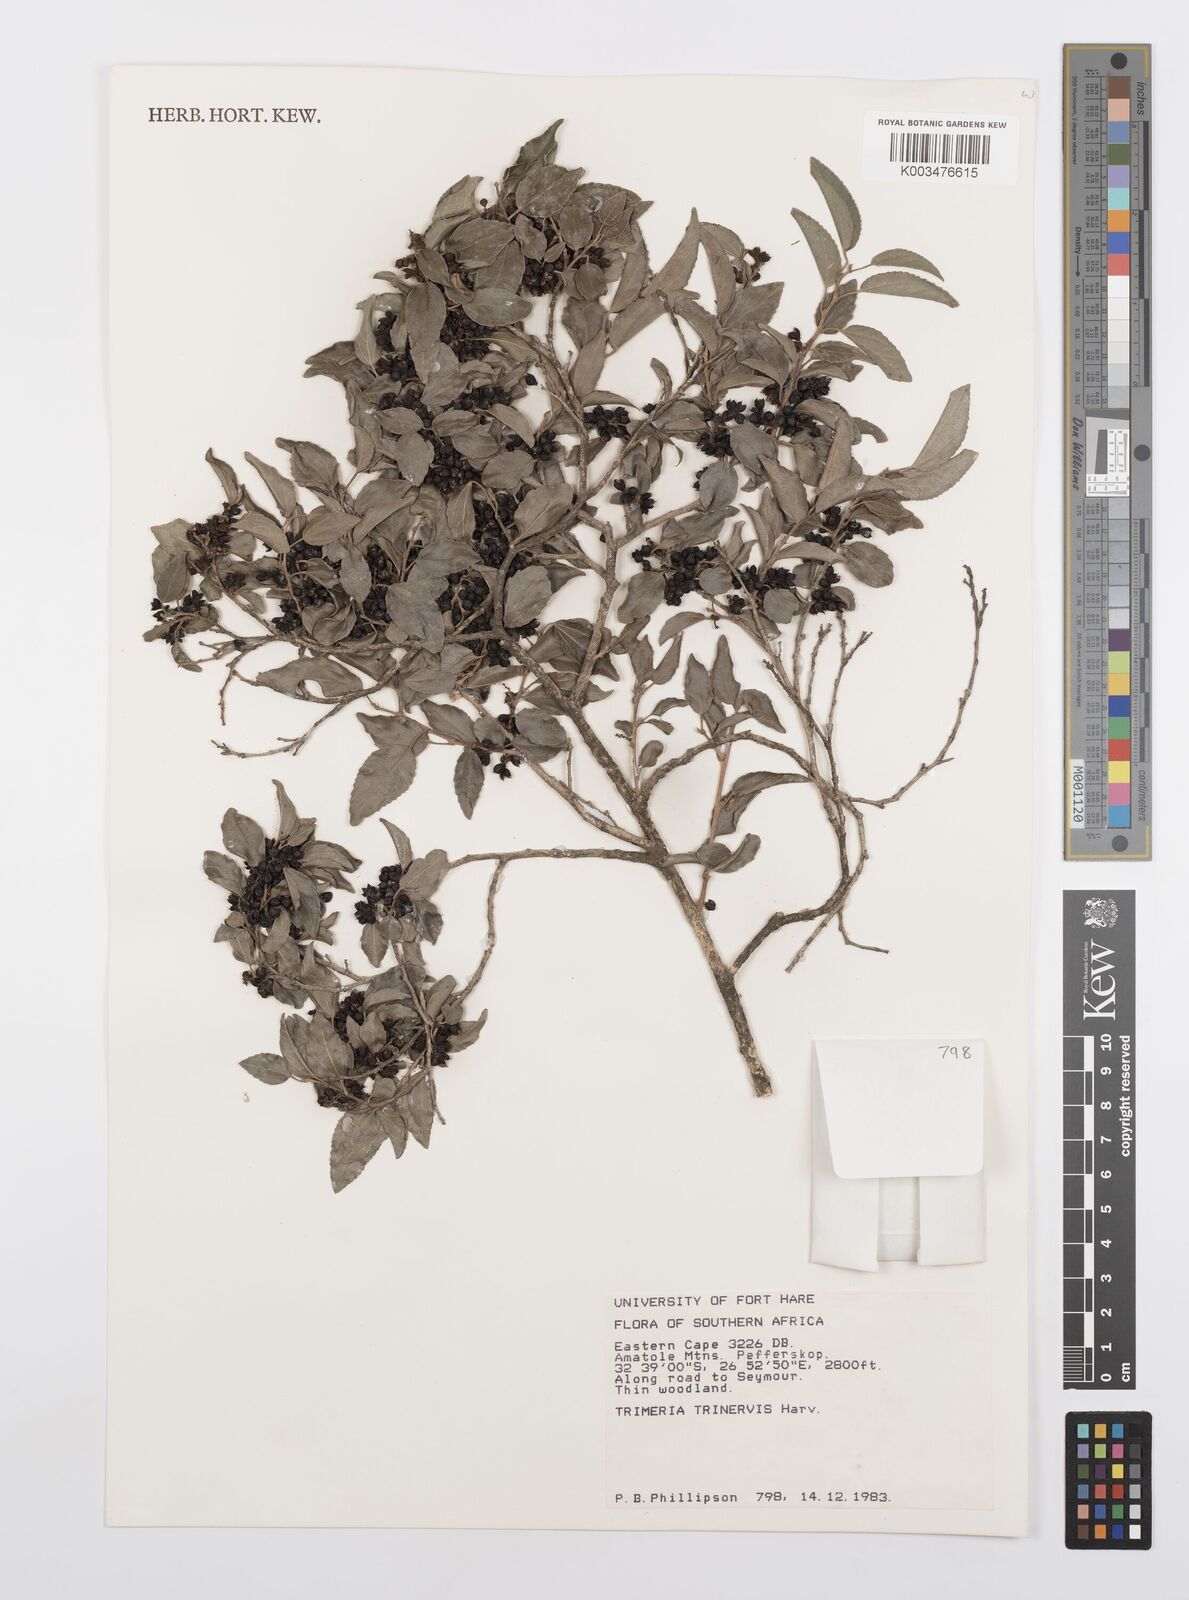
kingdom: Plantae
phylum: Tracheophyta
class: Magnoliopsida
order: Malpighiales
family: Salicaceae
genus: Trimeria
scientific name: Trimeria trinervis
